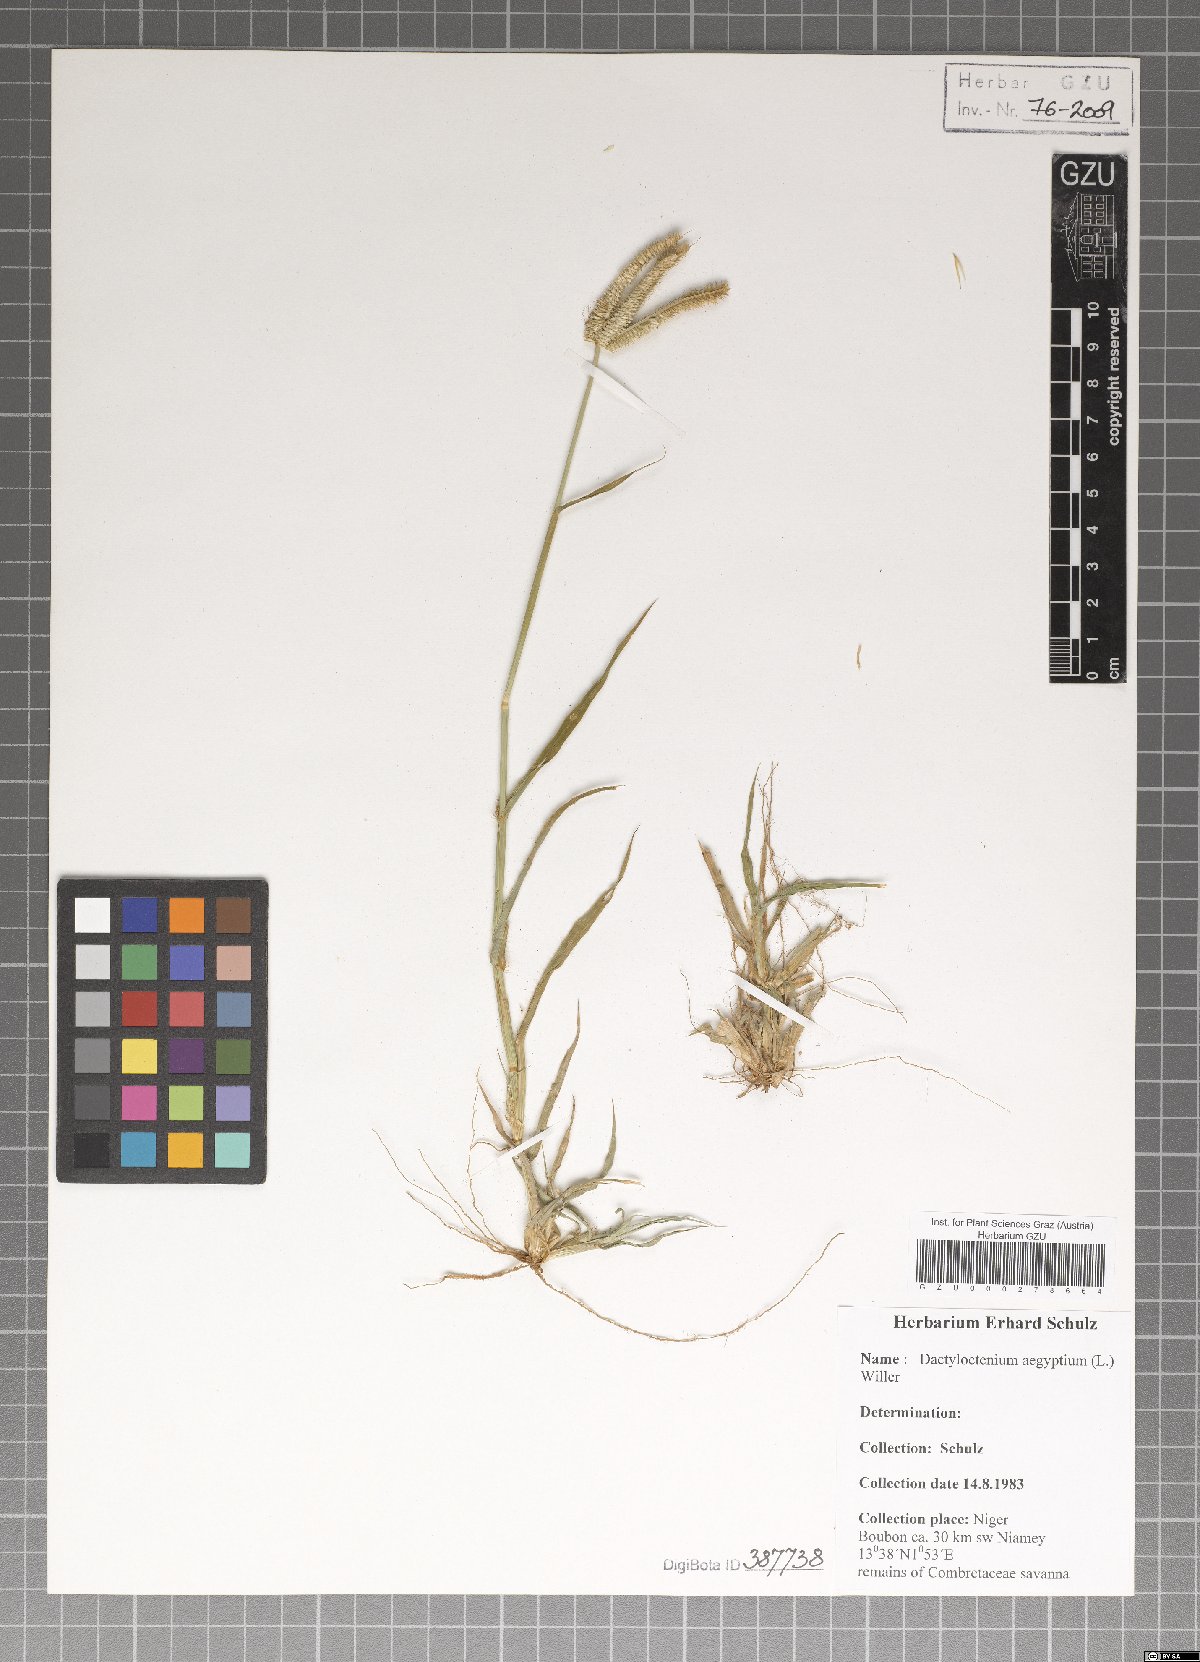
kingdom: Plantae
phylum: Tracheophyta
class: Liliopsida
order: Poales
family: Poaceae
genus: Dactyloctenium
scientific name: Dactyloctenium aegyptium
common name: Egyptian grass
